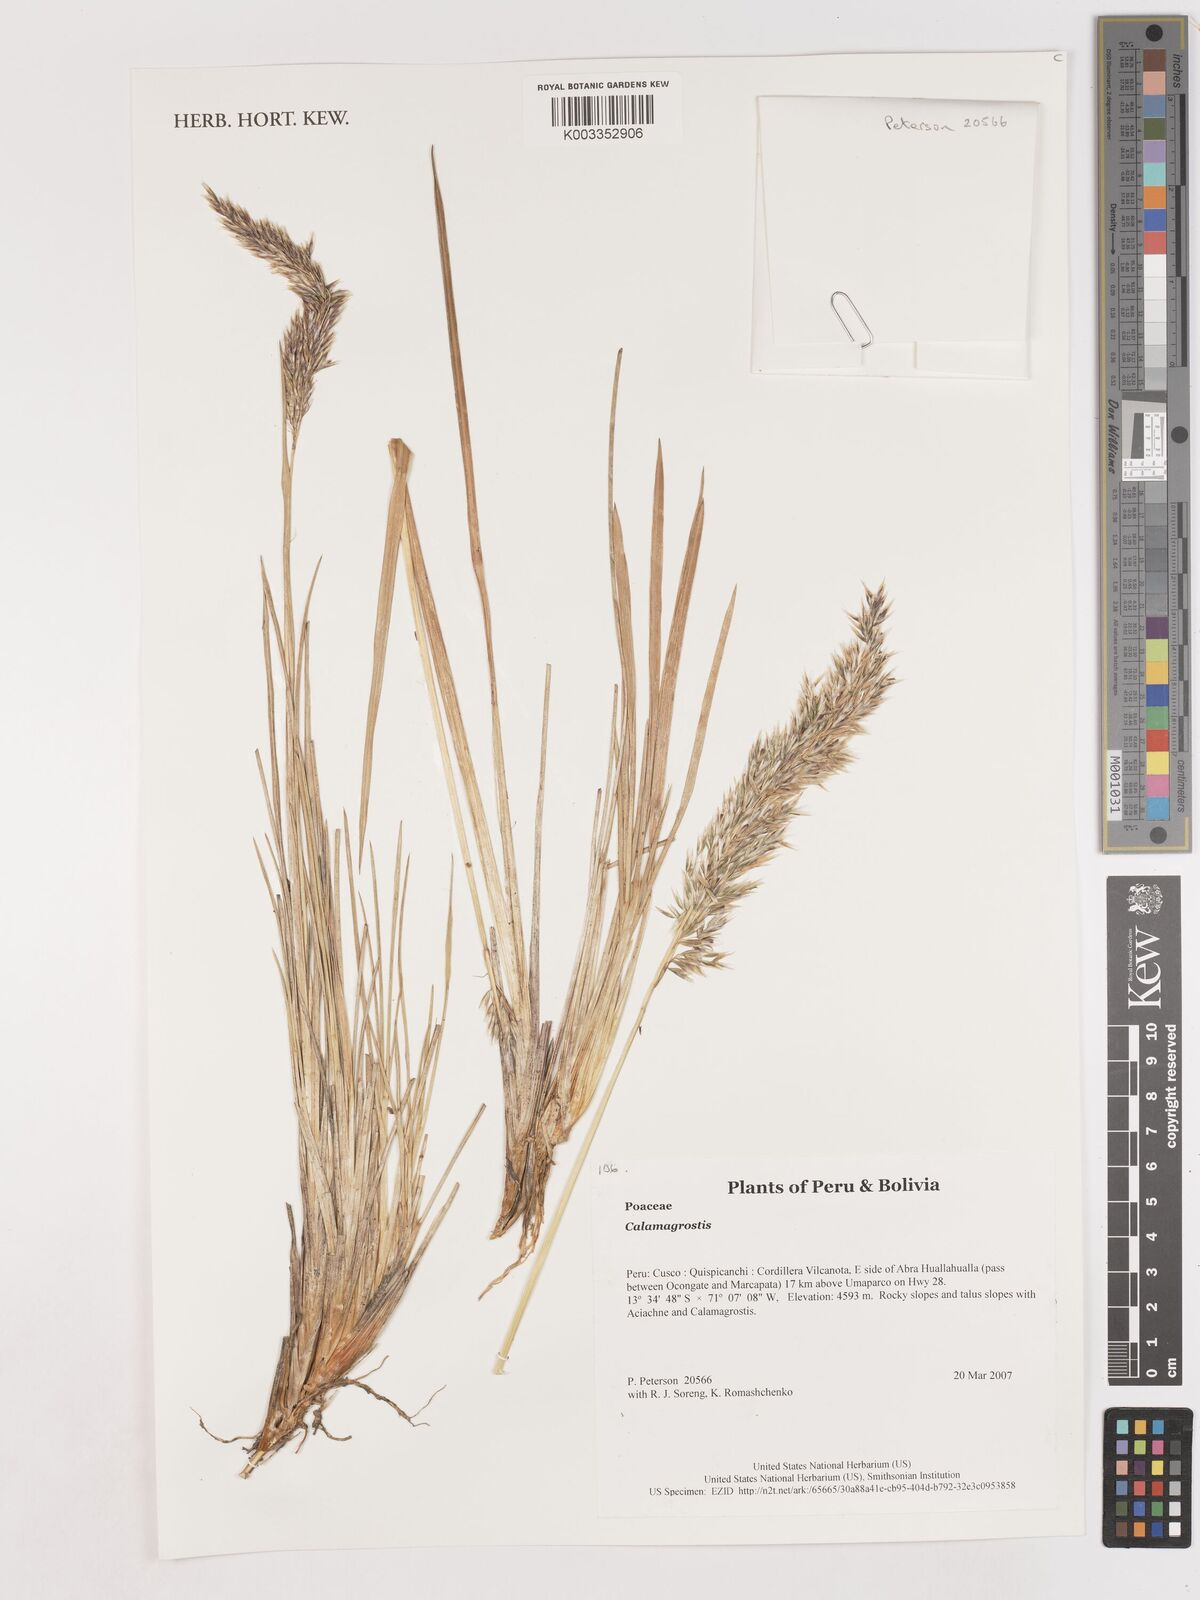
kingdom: Plantae
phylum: Tracheophyta
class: Liliopsida
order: Poales
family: Poaceae
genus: Calamagrostis
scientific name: Calamagrostis
